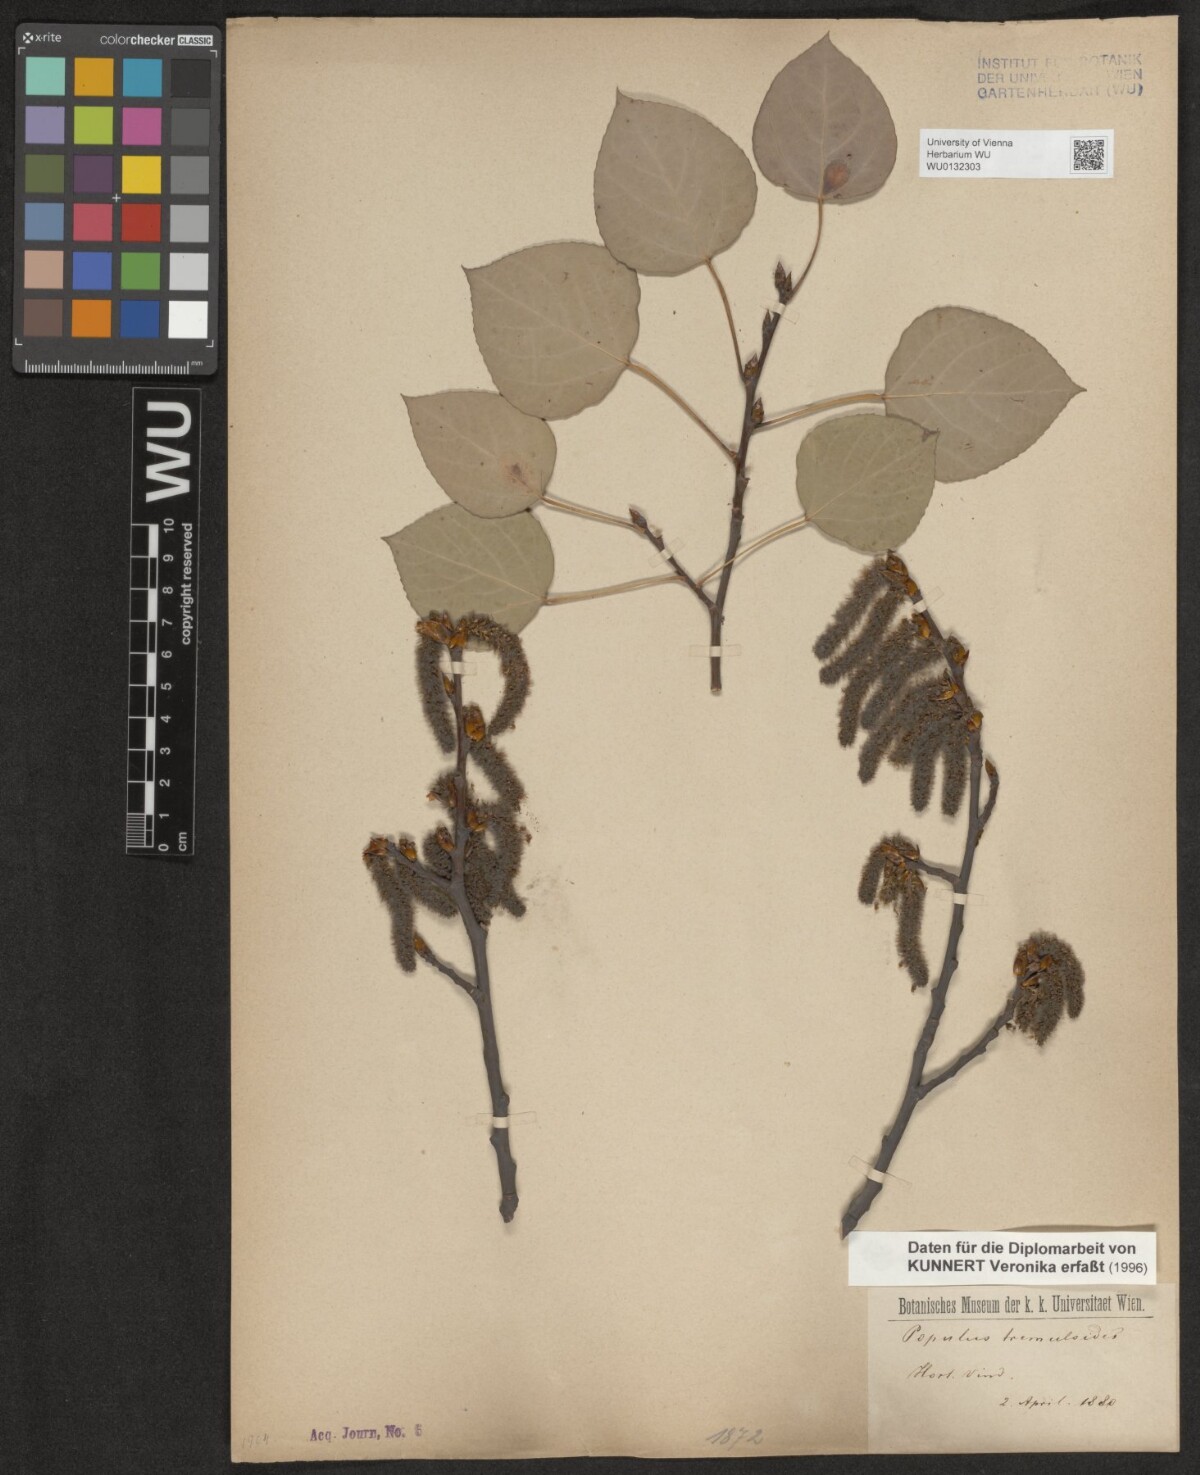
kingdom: Plantae
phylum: Tracheophyta
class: Magnoliopsida
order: Malpighiales
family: Salicaceae
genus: Populus
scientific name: Populus tremuloides
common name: Quaking aspen
